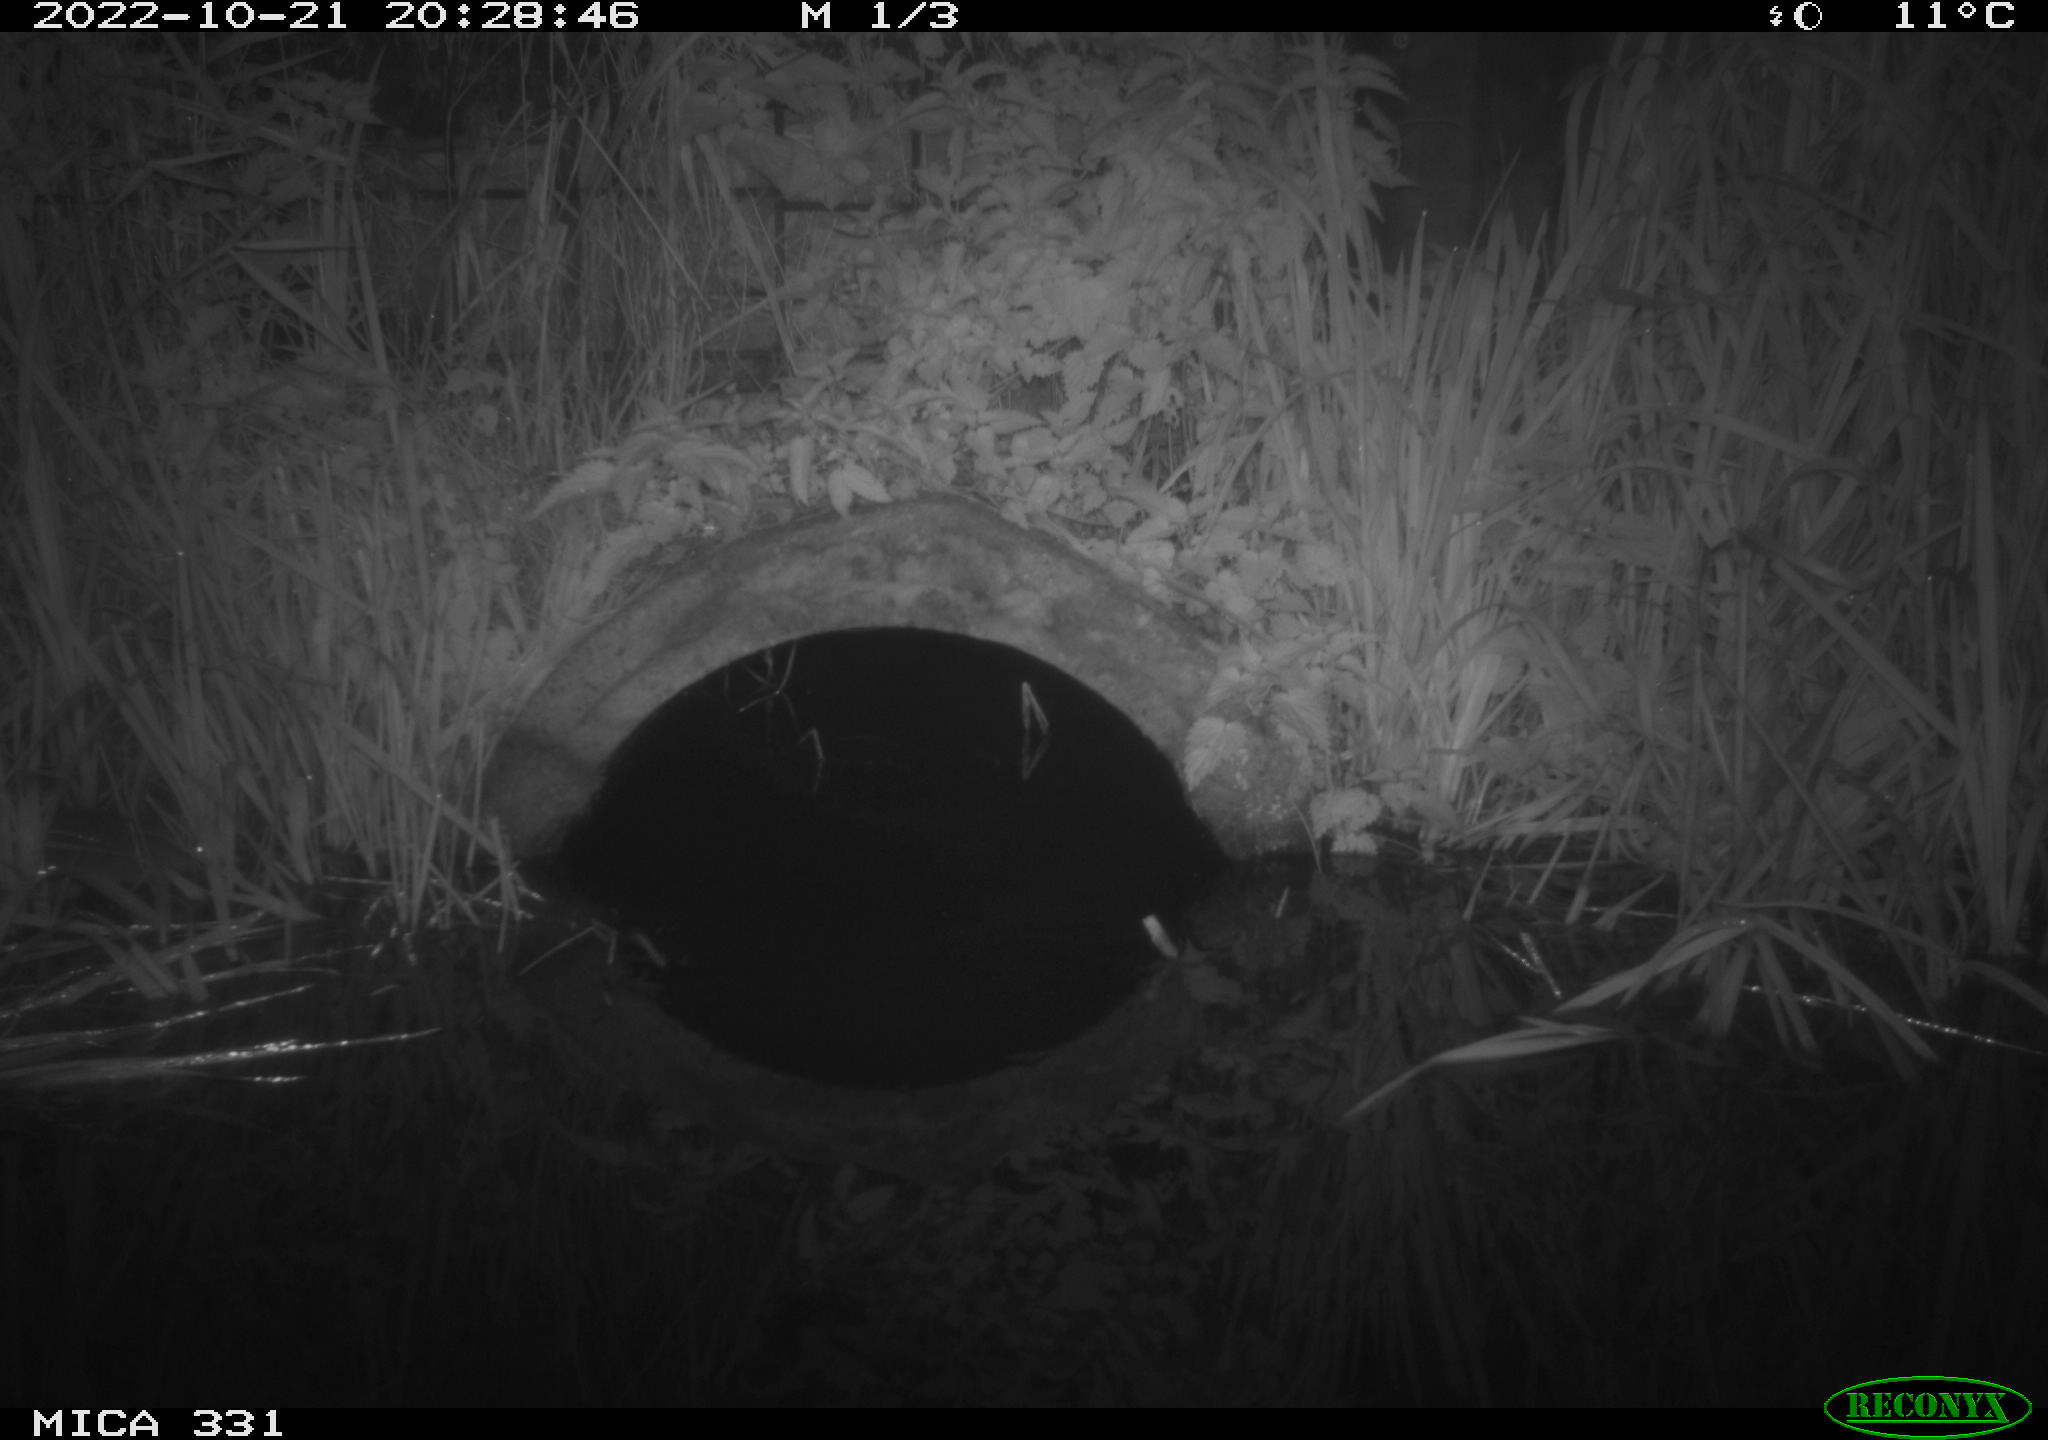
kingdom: Animalia
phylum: Chordata
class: Mammalia
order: Rodentia
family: Muridae
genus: Rattus
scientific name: Rattus norvegicus
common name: Brown rat
